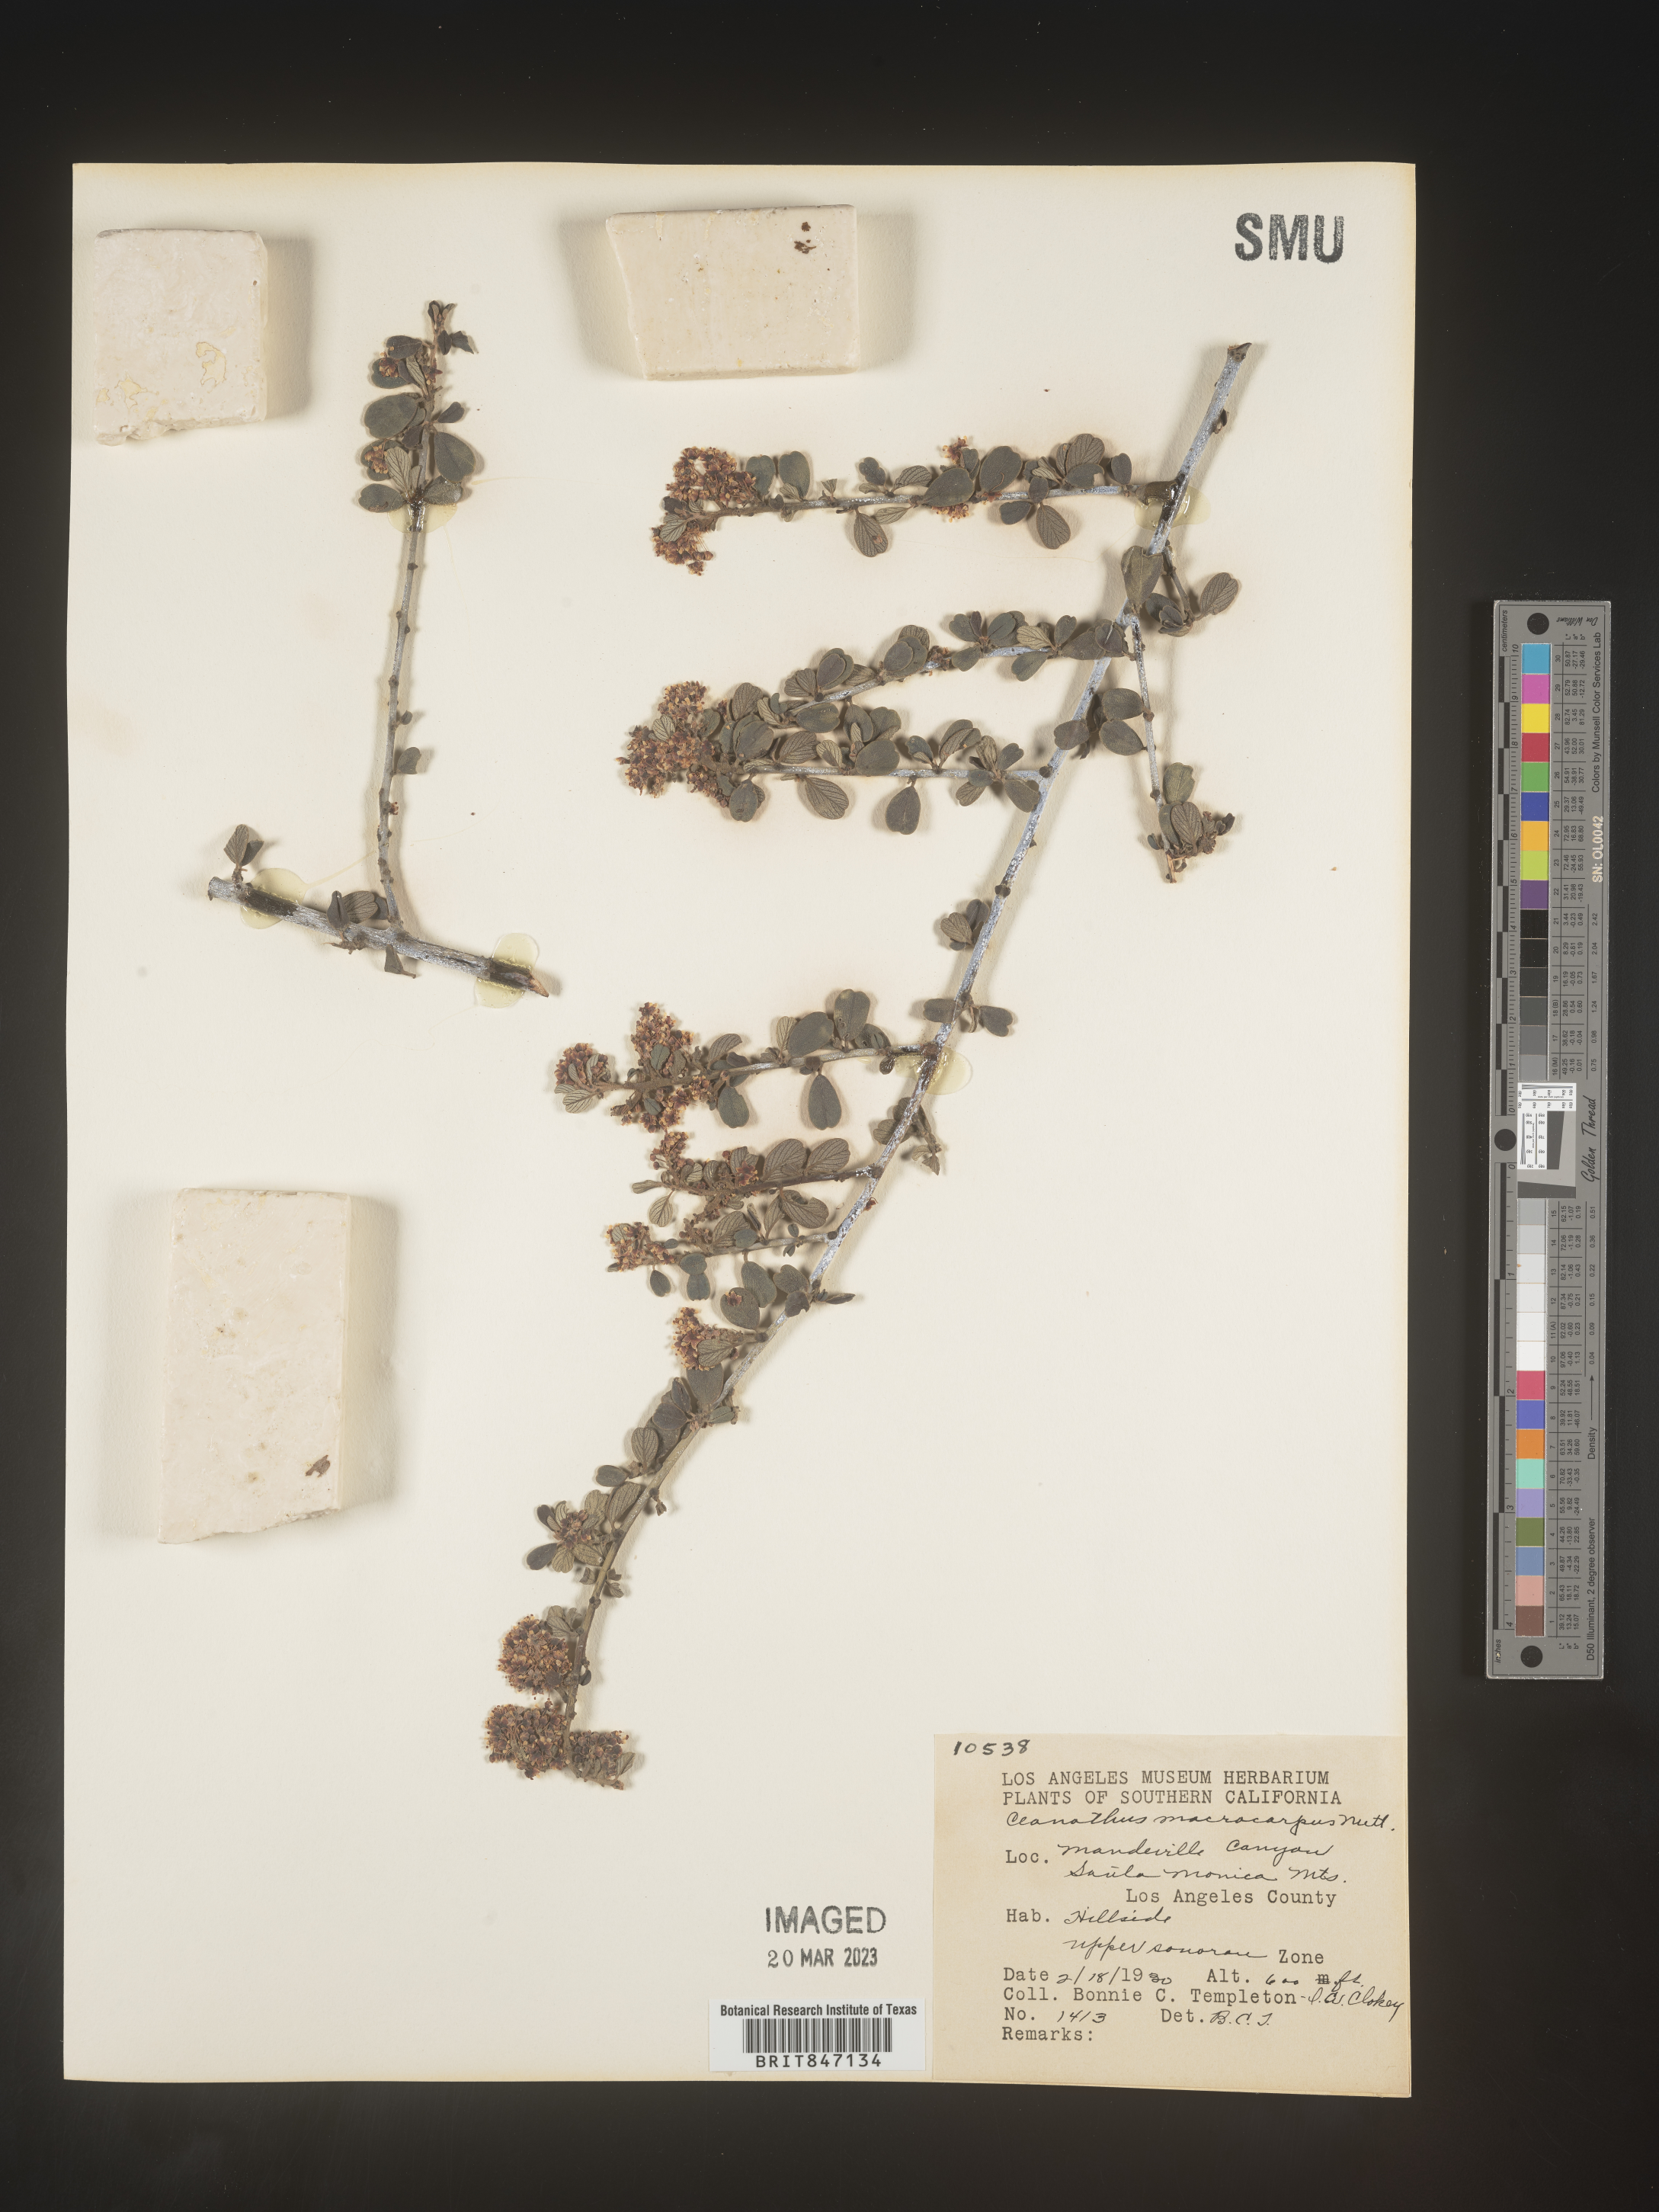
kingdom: Plantae
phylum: Tracheophyta
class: Magnoliopsida
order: Rosales
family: Rhamnaceae
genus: Ceanothus
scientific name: Ceanothus
